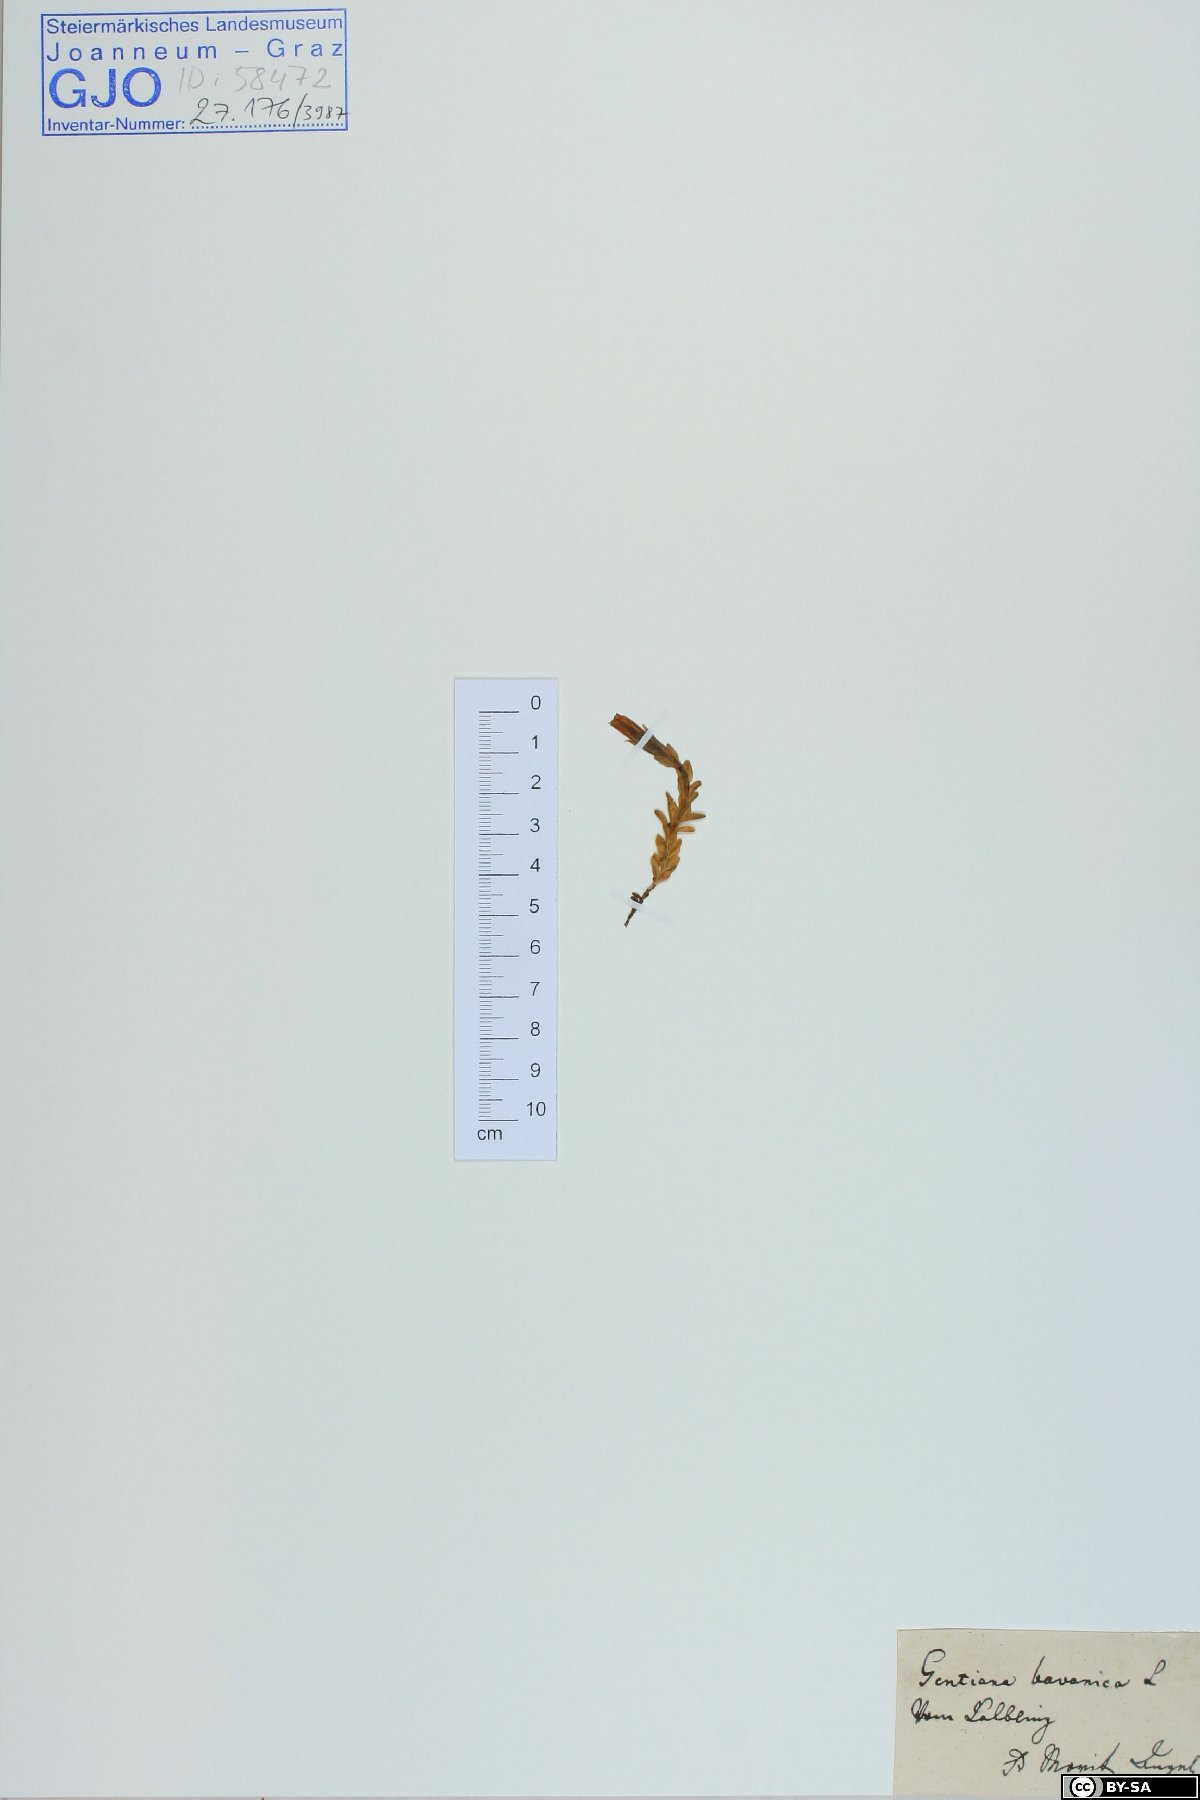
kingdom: Plantae
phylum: Tracheophyta
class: Magnoliopsida
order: Gentianales
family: Gentianaceae
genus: Gentiana
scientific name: Gentiana bavarica
